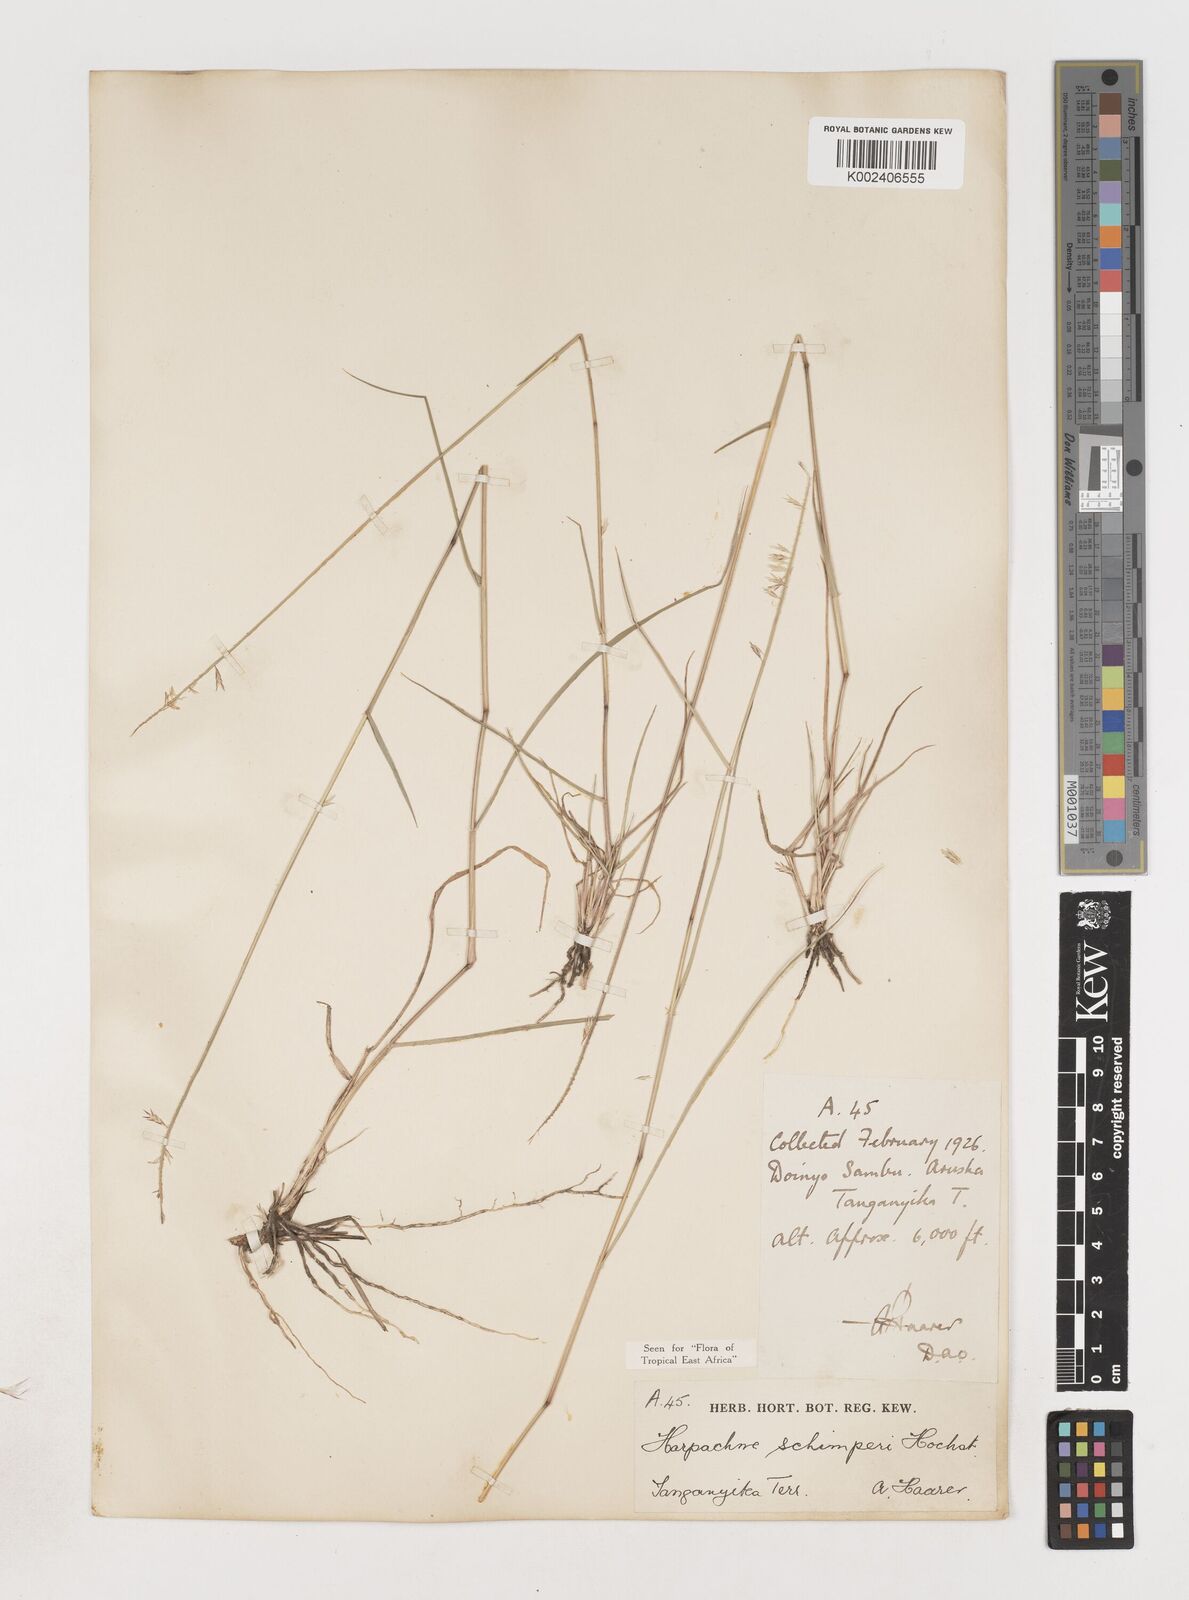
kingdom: Plantae
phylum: Tracheophyta
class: Liliopsida
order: Poales
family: Poaceae
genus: Harpachne
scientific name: Harpachne schimperi
